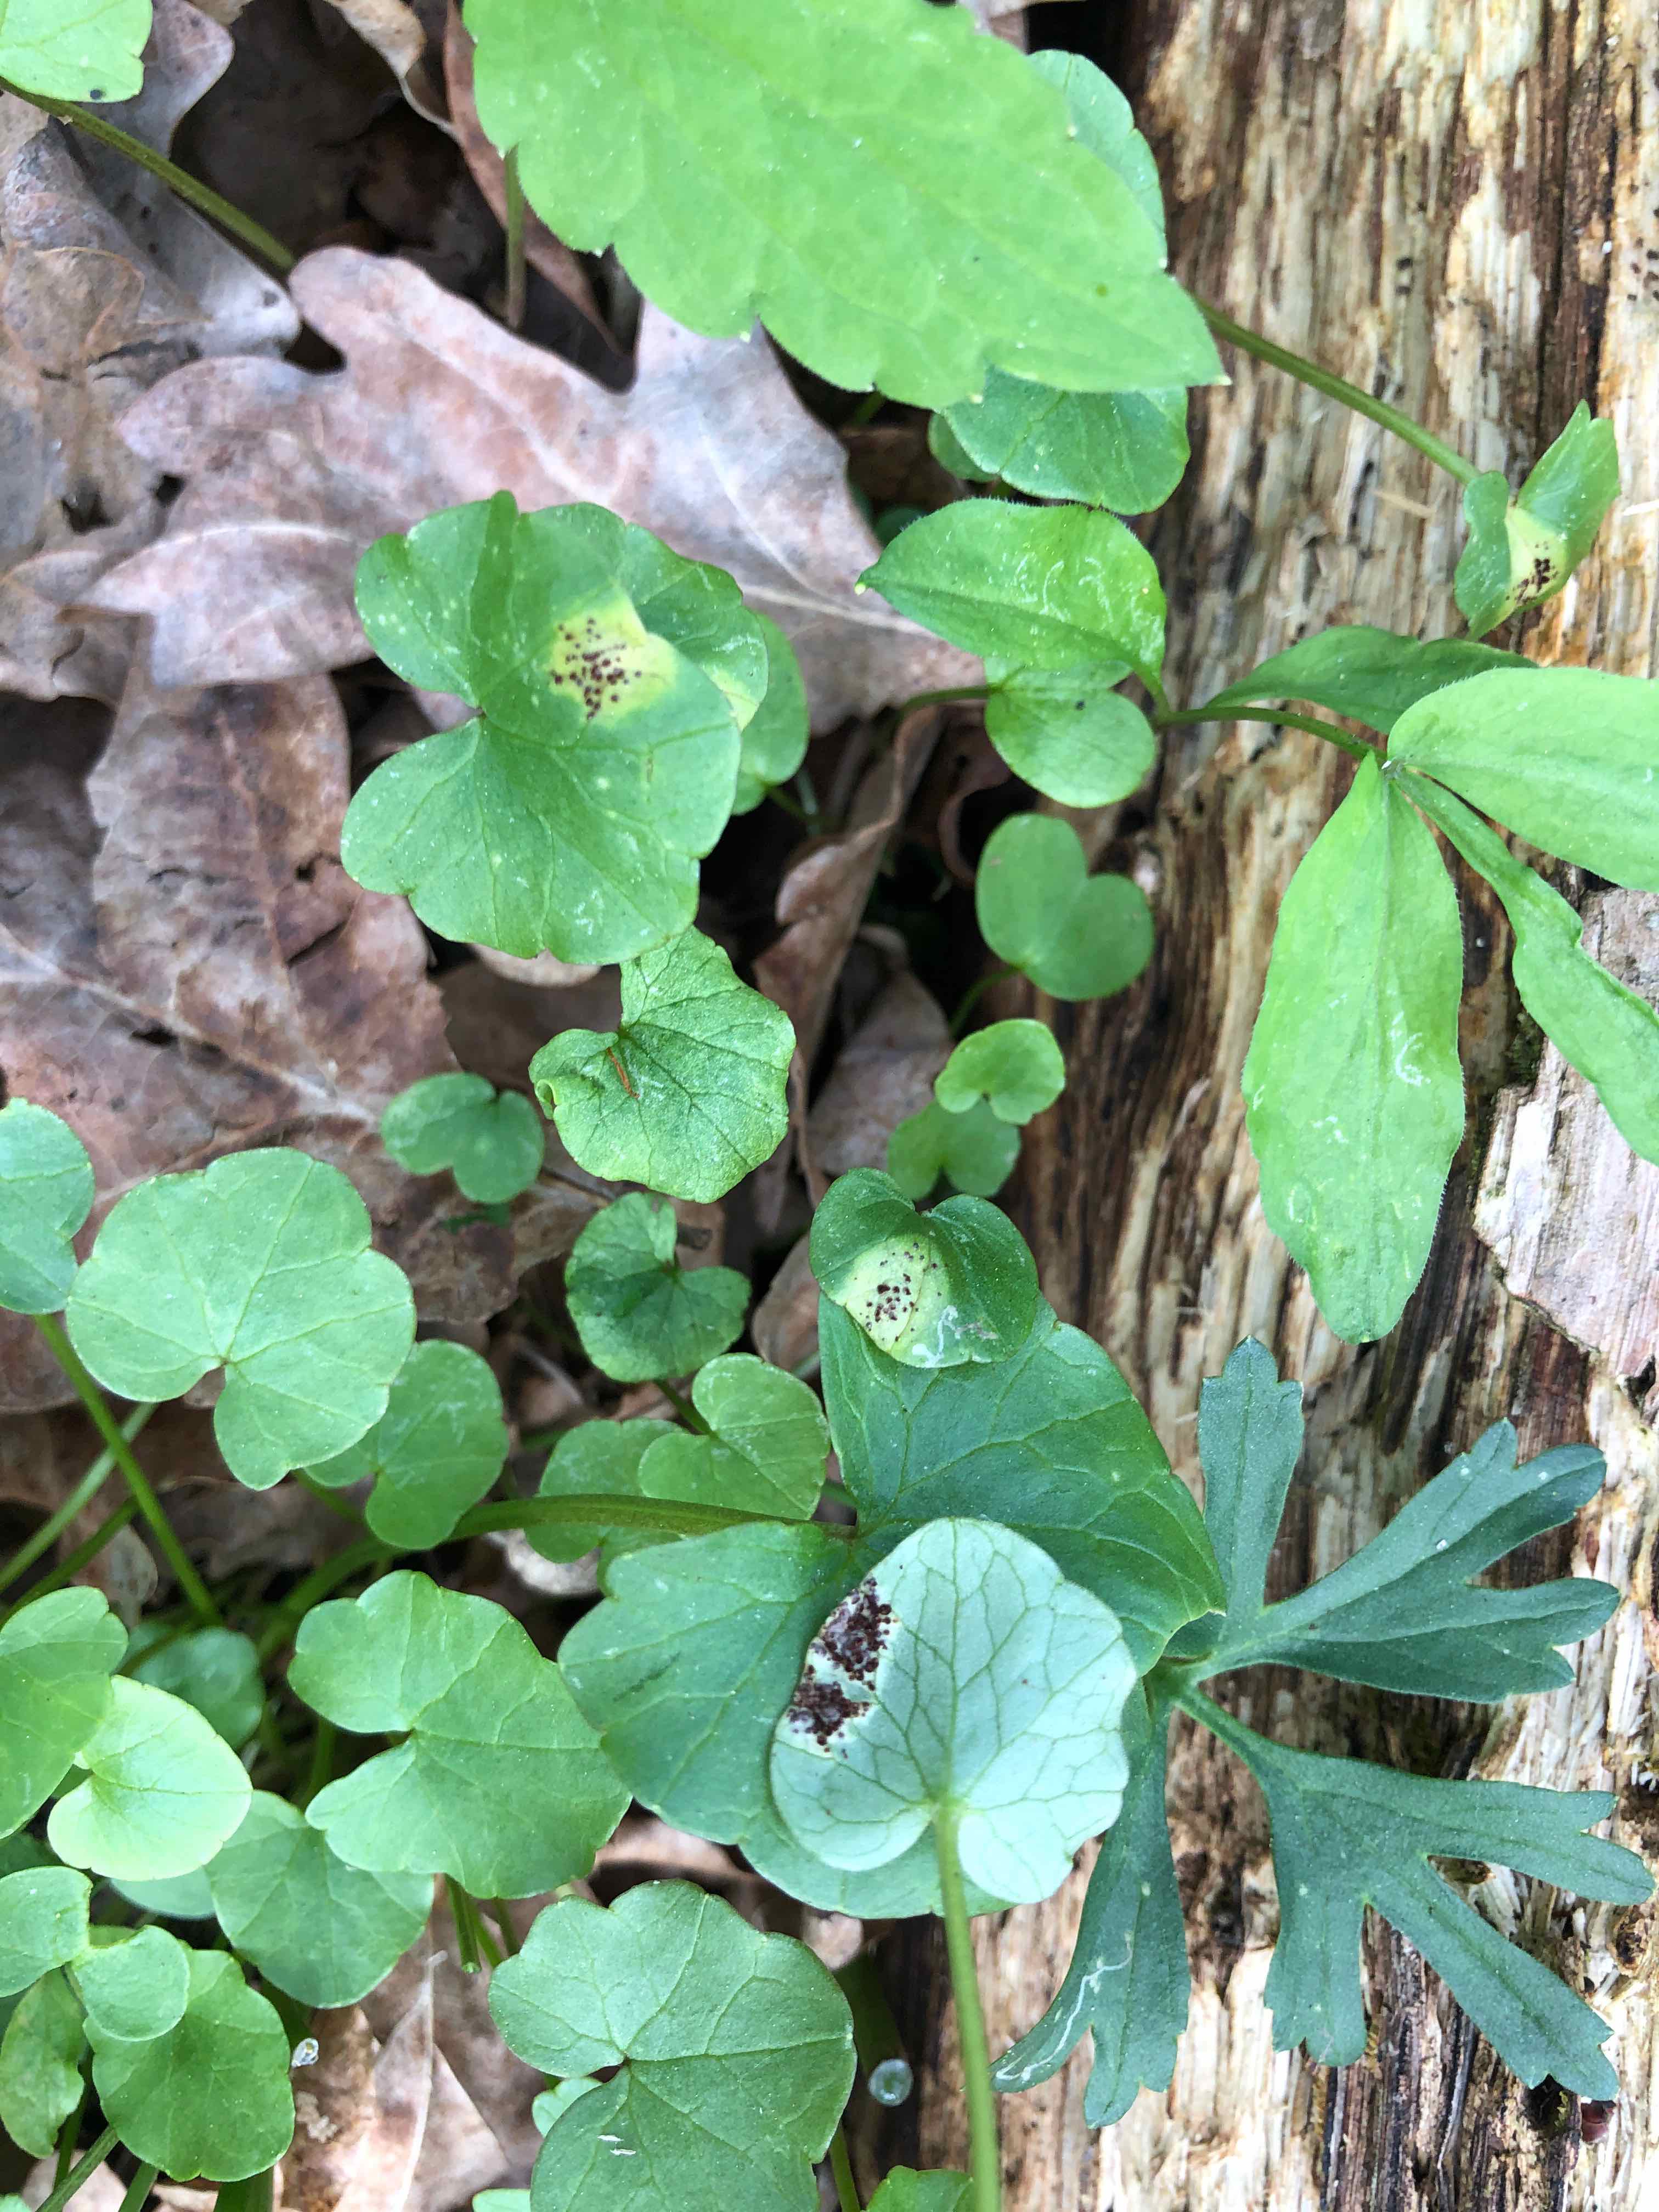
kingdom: Fungi
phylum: Basidiomycota
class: Pucciniomycetes
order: Pucciniales
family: Pucciniaceae
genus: Uromyces
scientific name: Uromyces ficariae
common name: vorterod-encellerust
